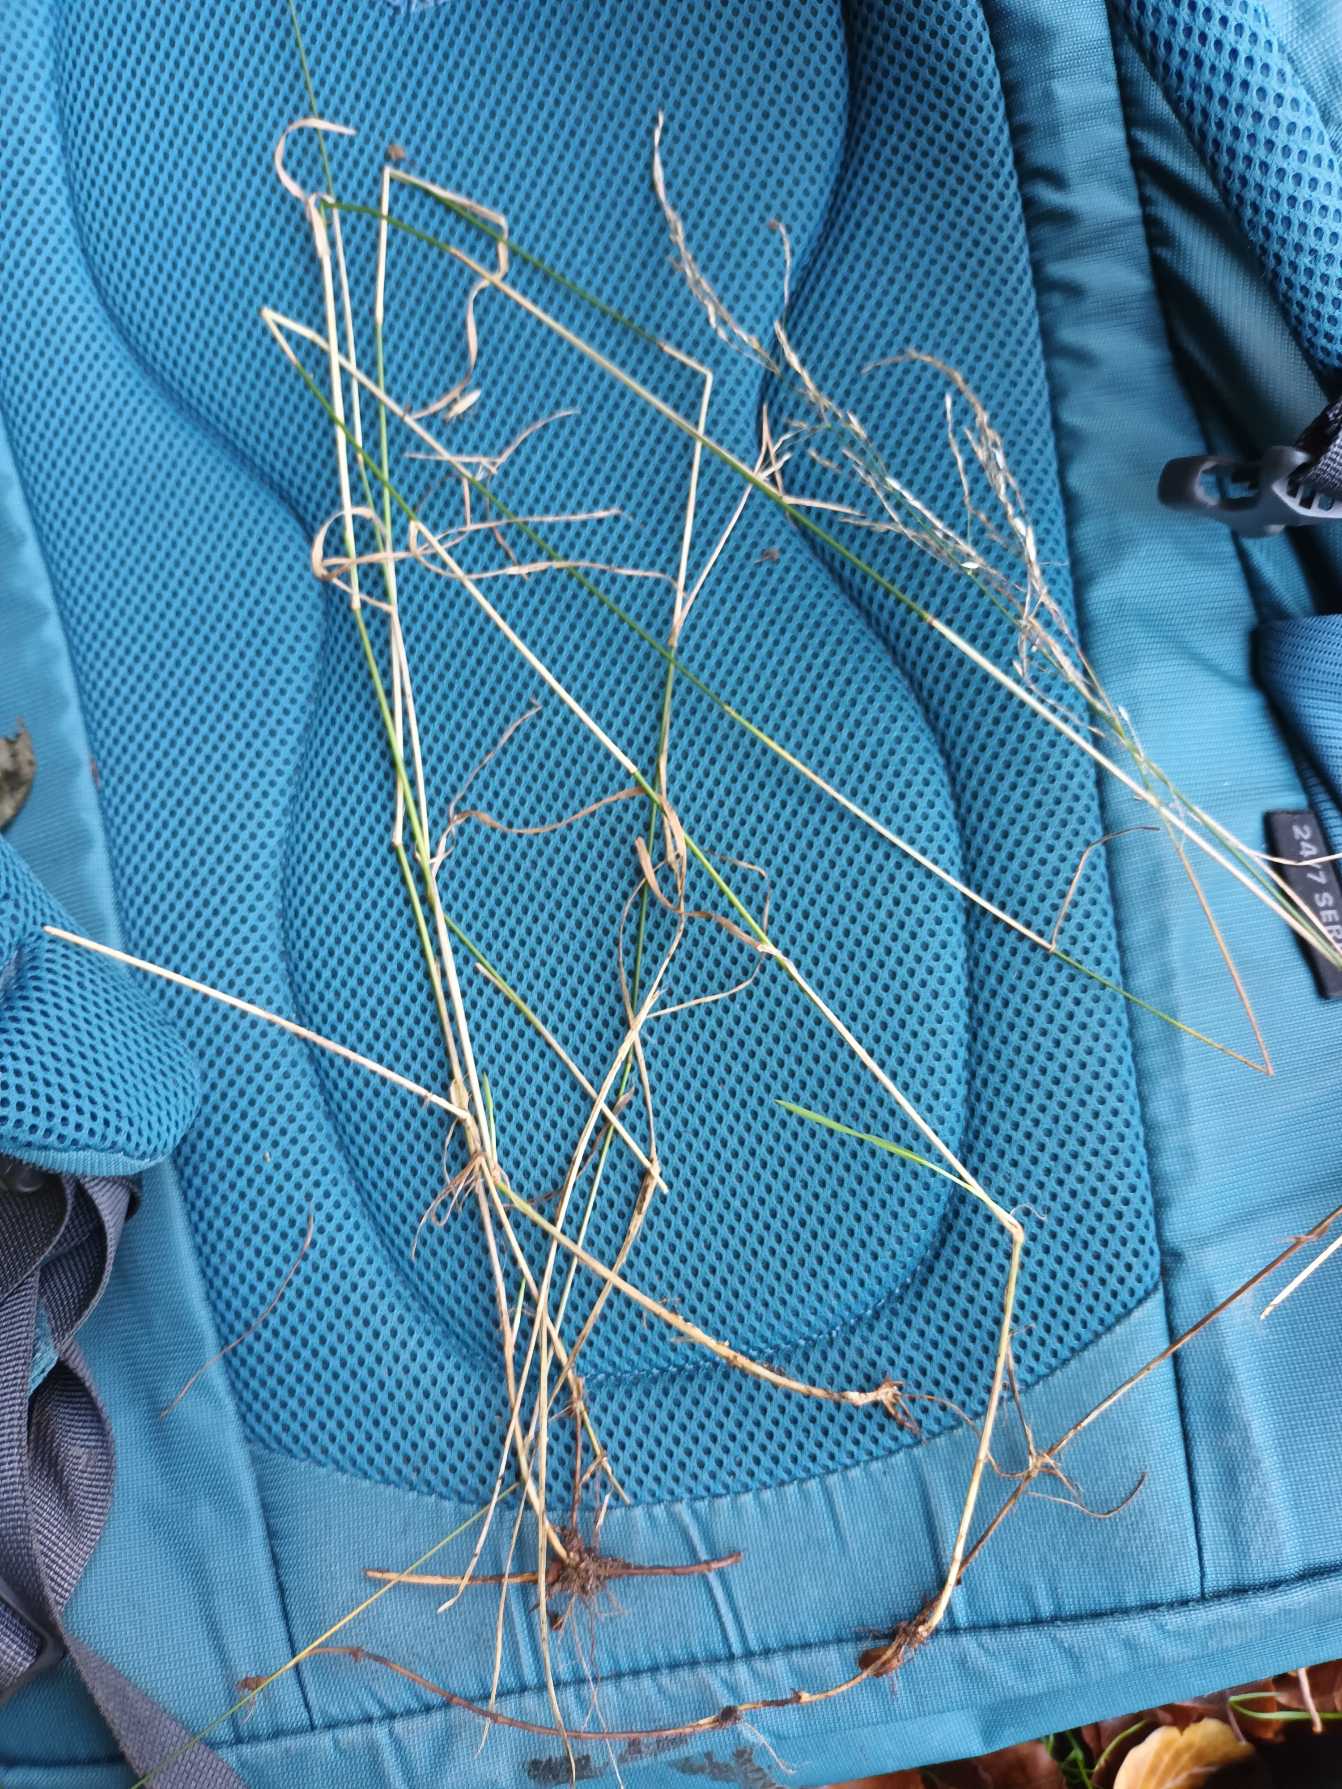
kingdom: Plantae
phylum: Tracheophyta
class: Liliopsida
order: Poales
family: Poaceae
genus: Poa
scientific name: Poa nemoralis
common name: Lund-rapgræs
